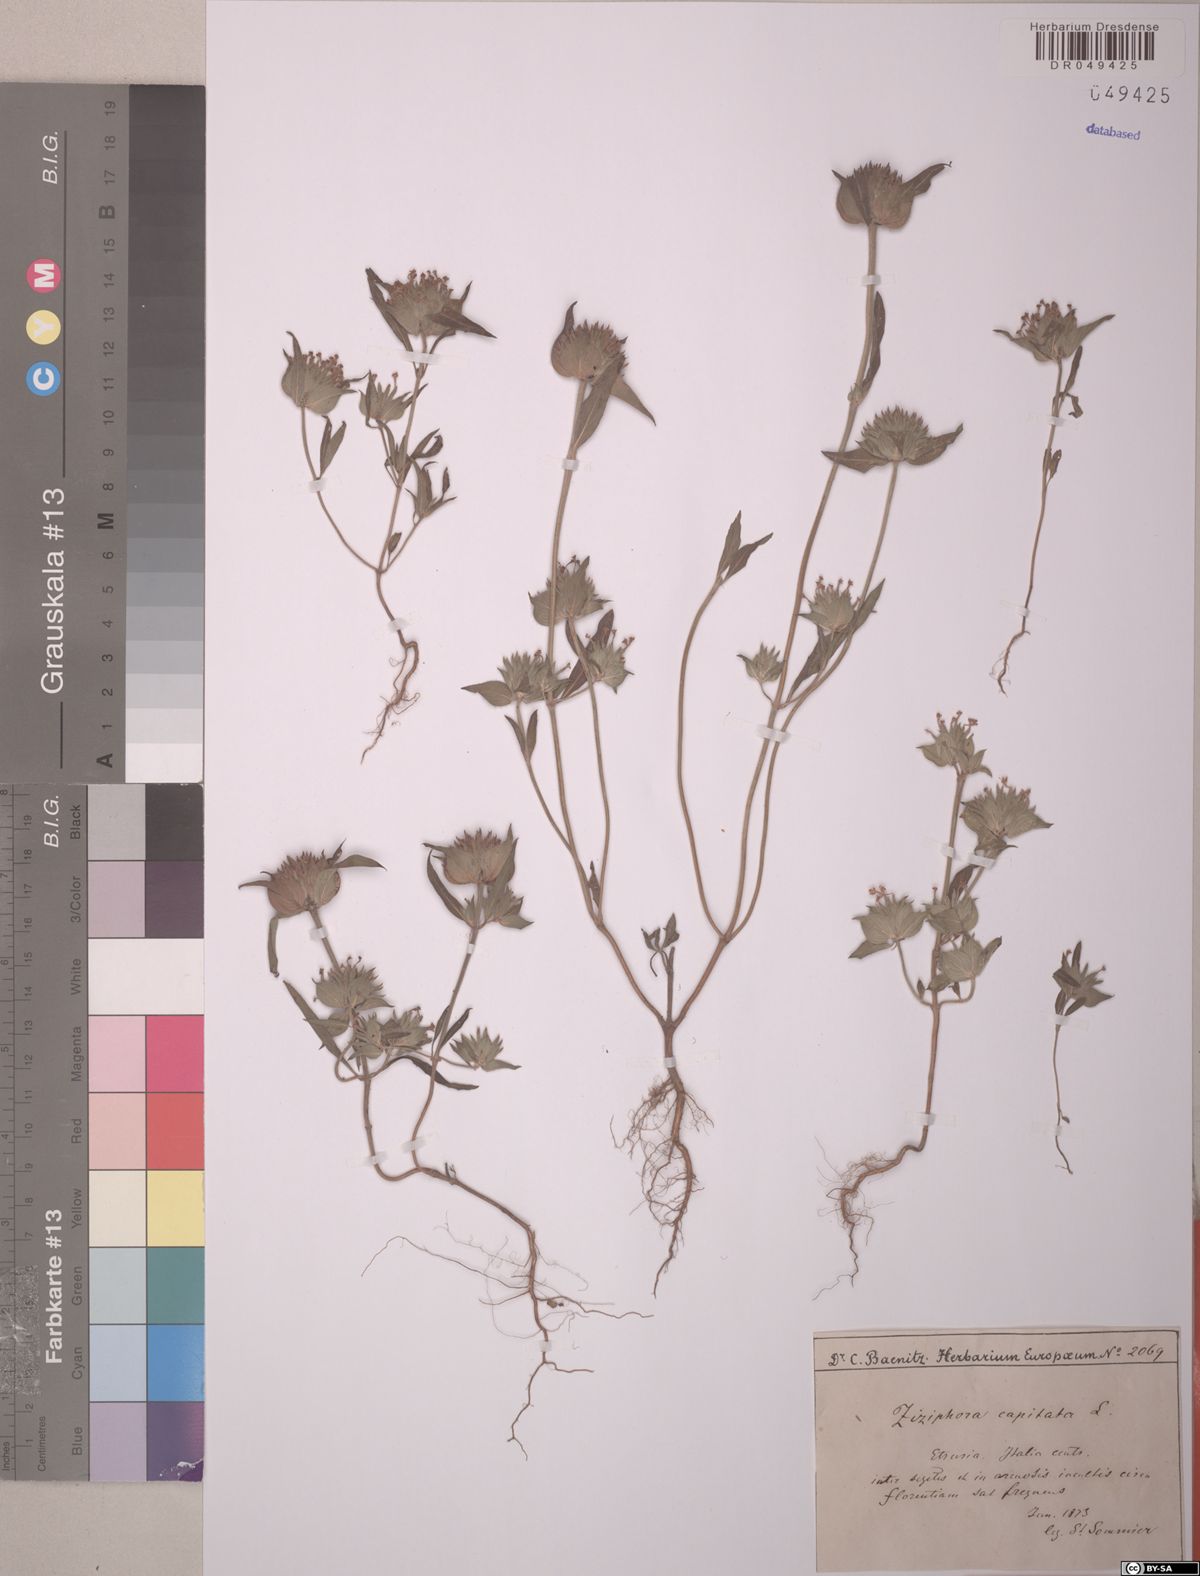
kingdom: Plantae
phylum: Tracheophyta
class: Magnoliopsida
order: Lamiales
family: Lamiaceae
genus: Ziziphora
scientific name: Ziziphora capitata
